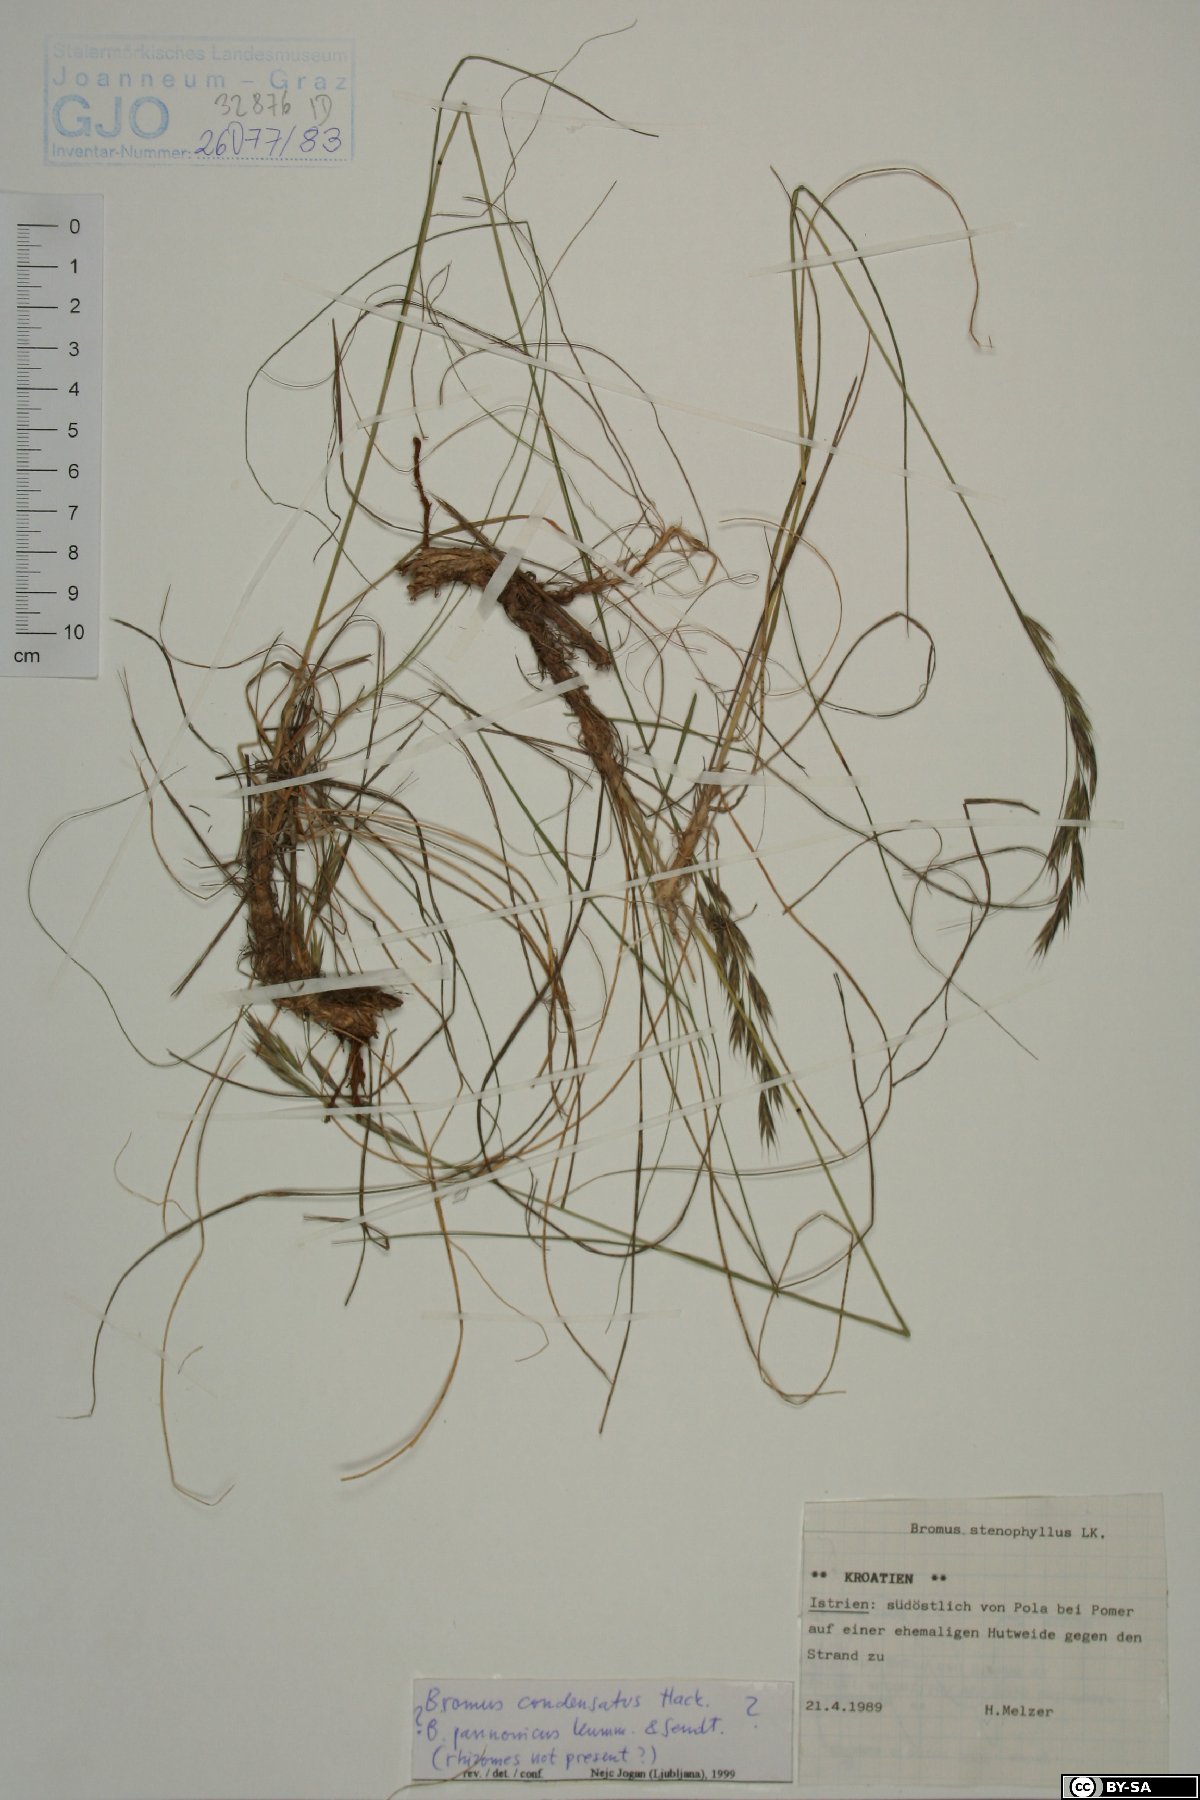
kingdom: Plantae
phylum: Tracheophyta
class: Liliopsida
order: Poales
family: Poaceae
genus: Bromus
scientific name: Bromus condensatus
